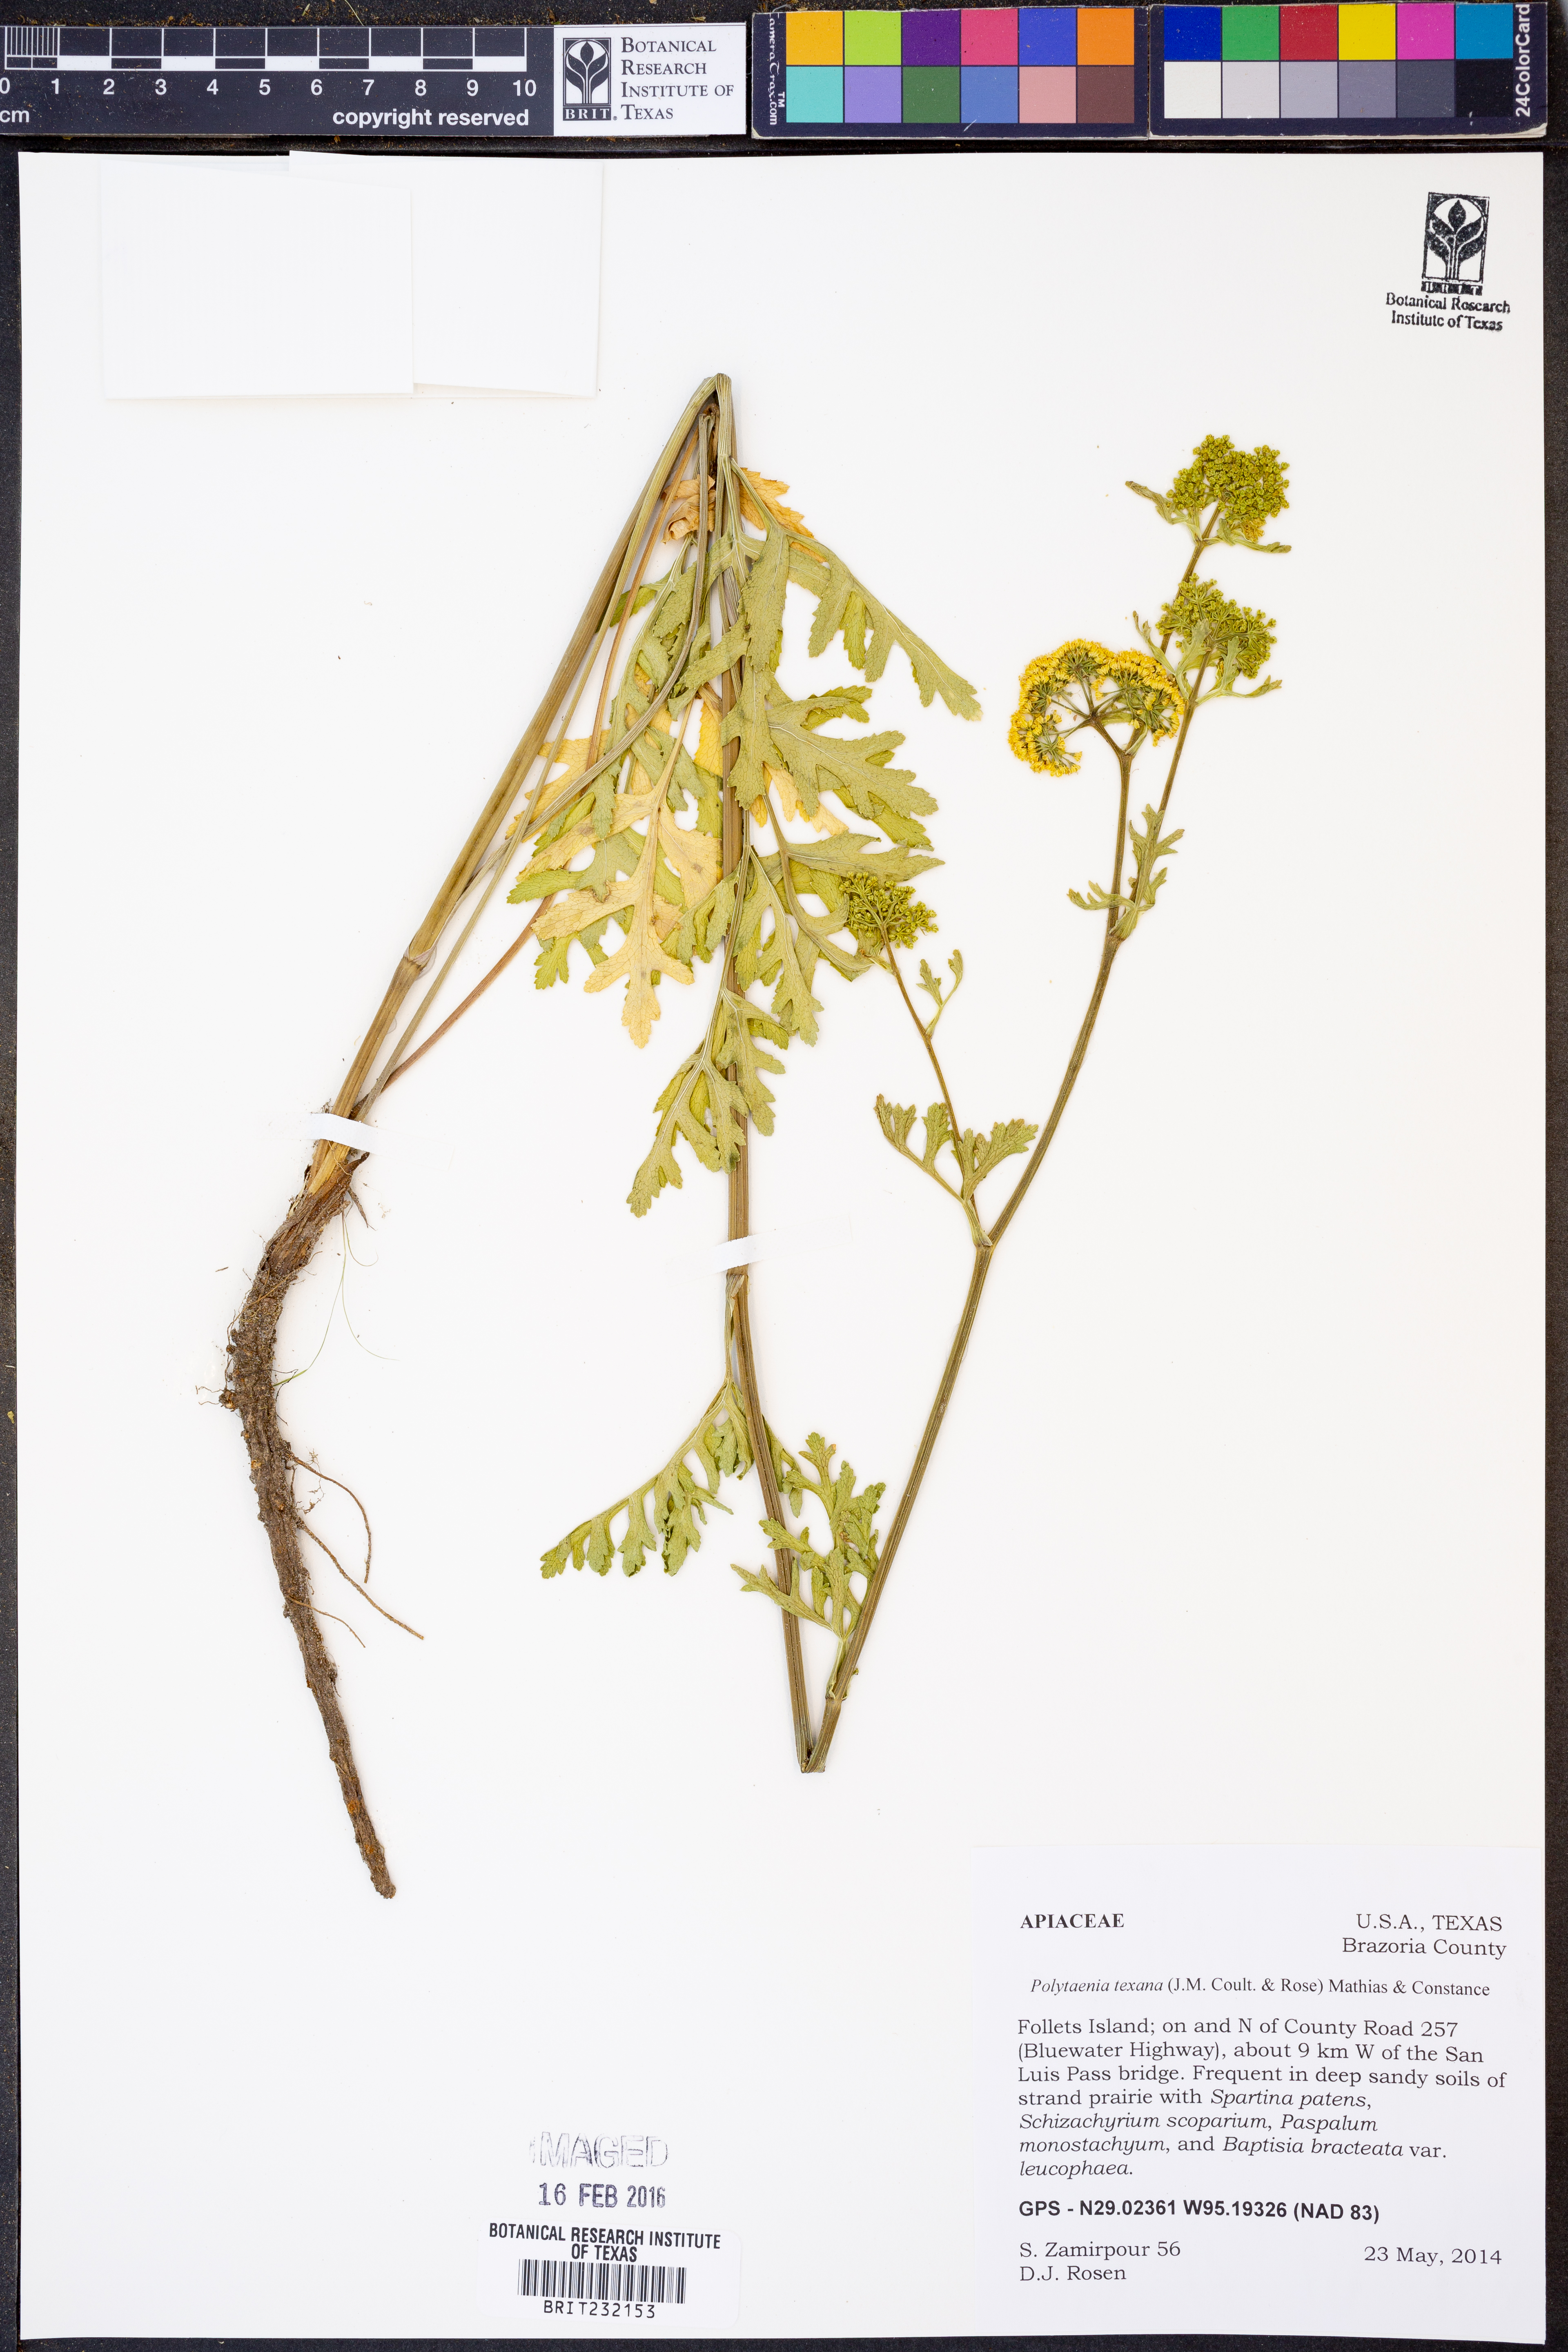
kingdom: Plantae
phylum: Tracheophyta
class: Magnoliopsida
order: Apiales
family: Apiaceae
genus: Polytaenia
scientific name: Polytaenia texana
